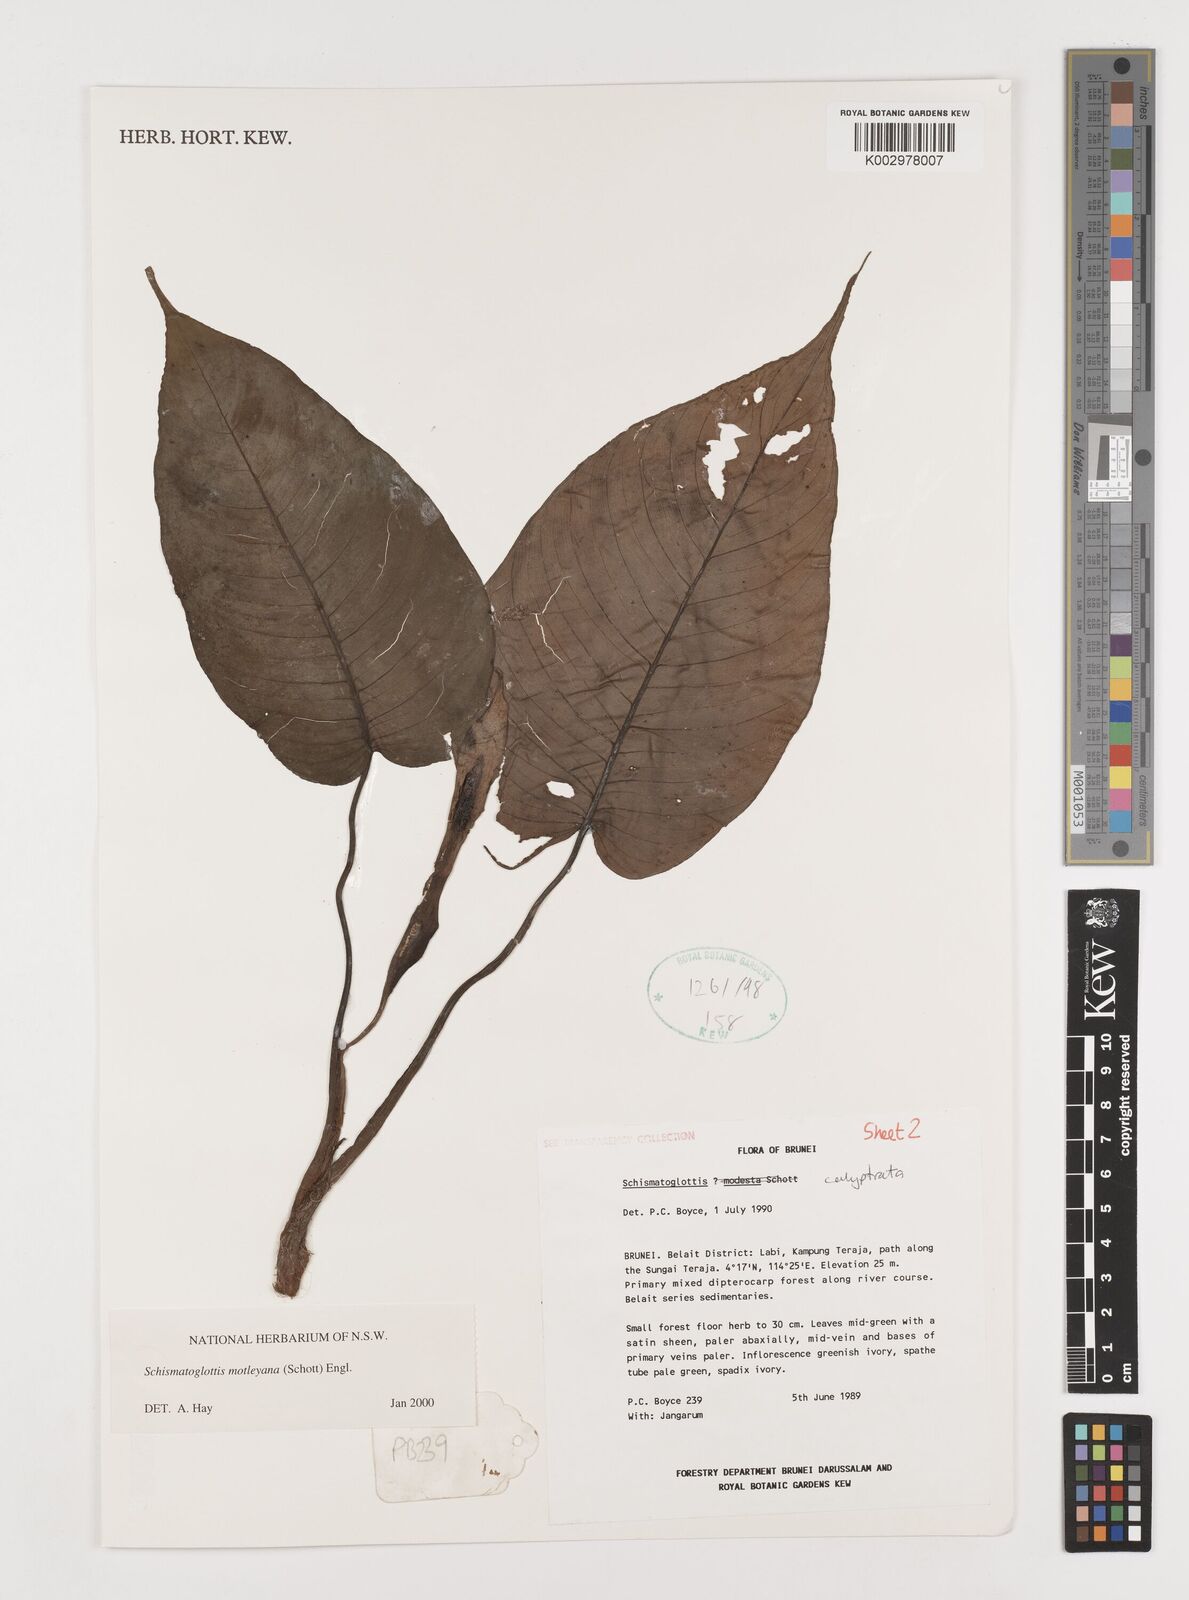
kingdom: Plantae
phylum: Tracheophyta
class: Liliopsida
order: Alismatales
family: Araceae
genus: Schismatoglottis
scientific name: Schismatoglottis motleyana
